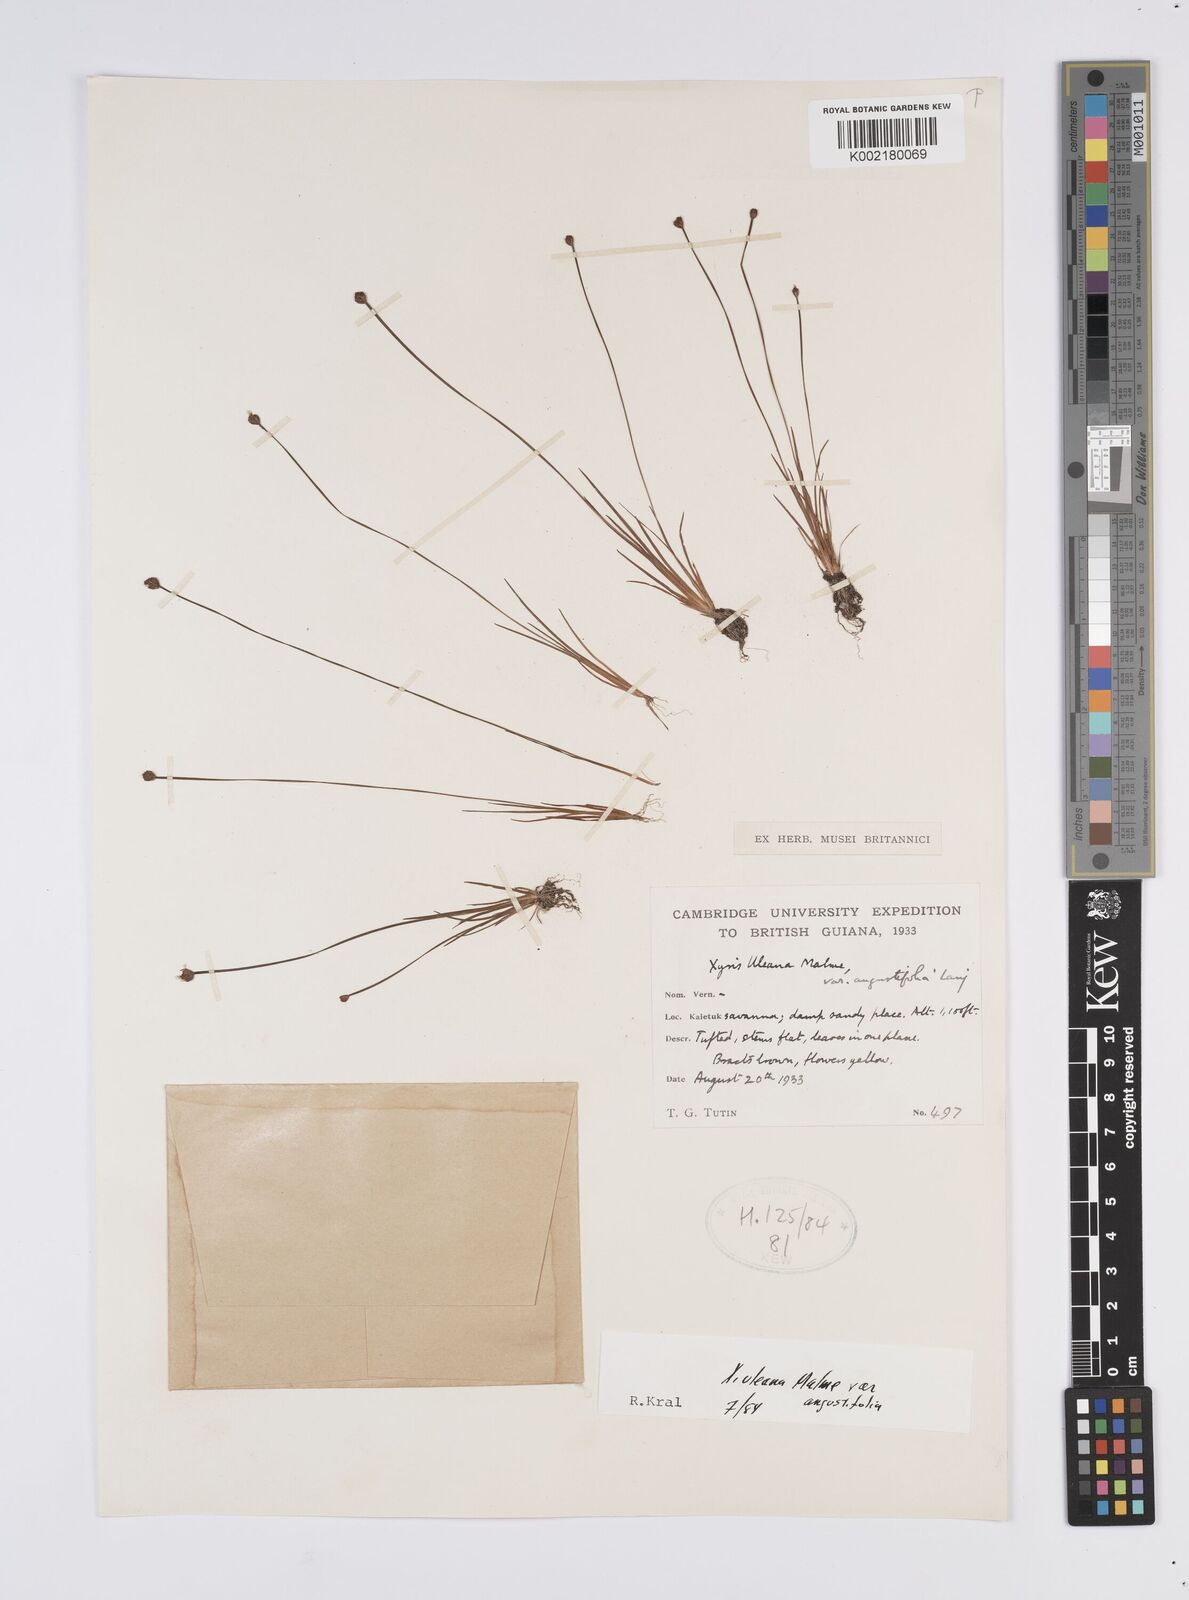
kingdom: Plantae
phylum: Tracheophyta
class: Liliopsida
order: Poales
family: Xyridaceae
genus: Xyris
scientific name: Xyris uleana
